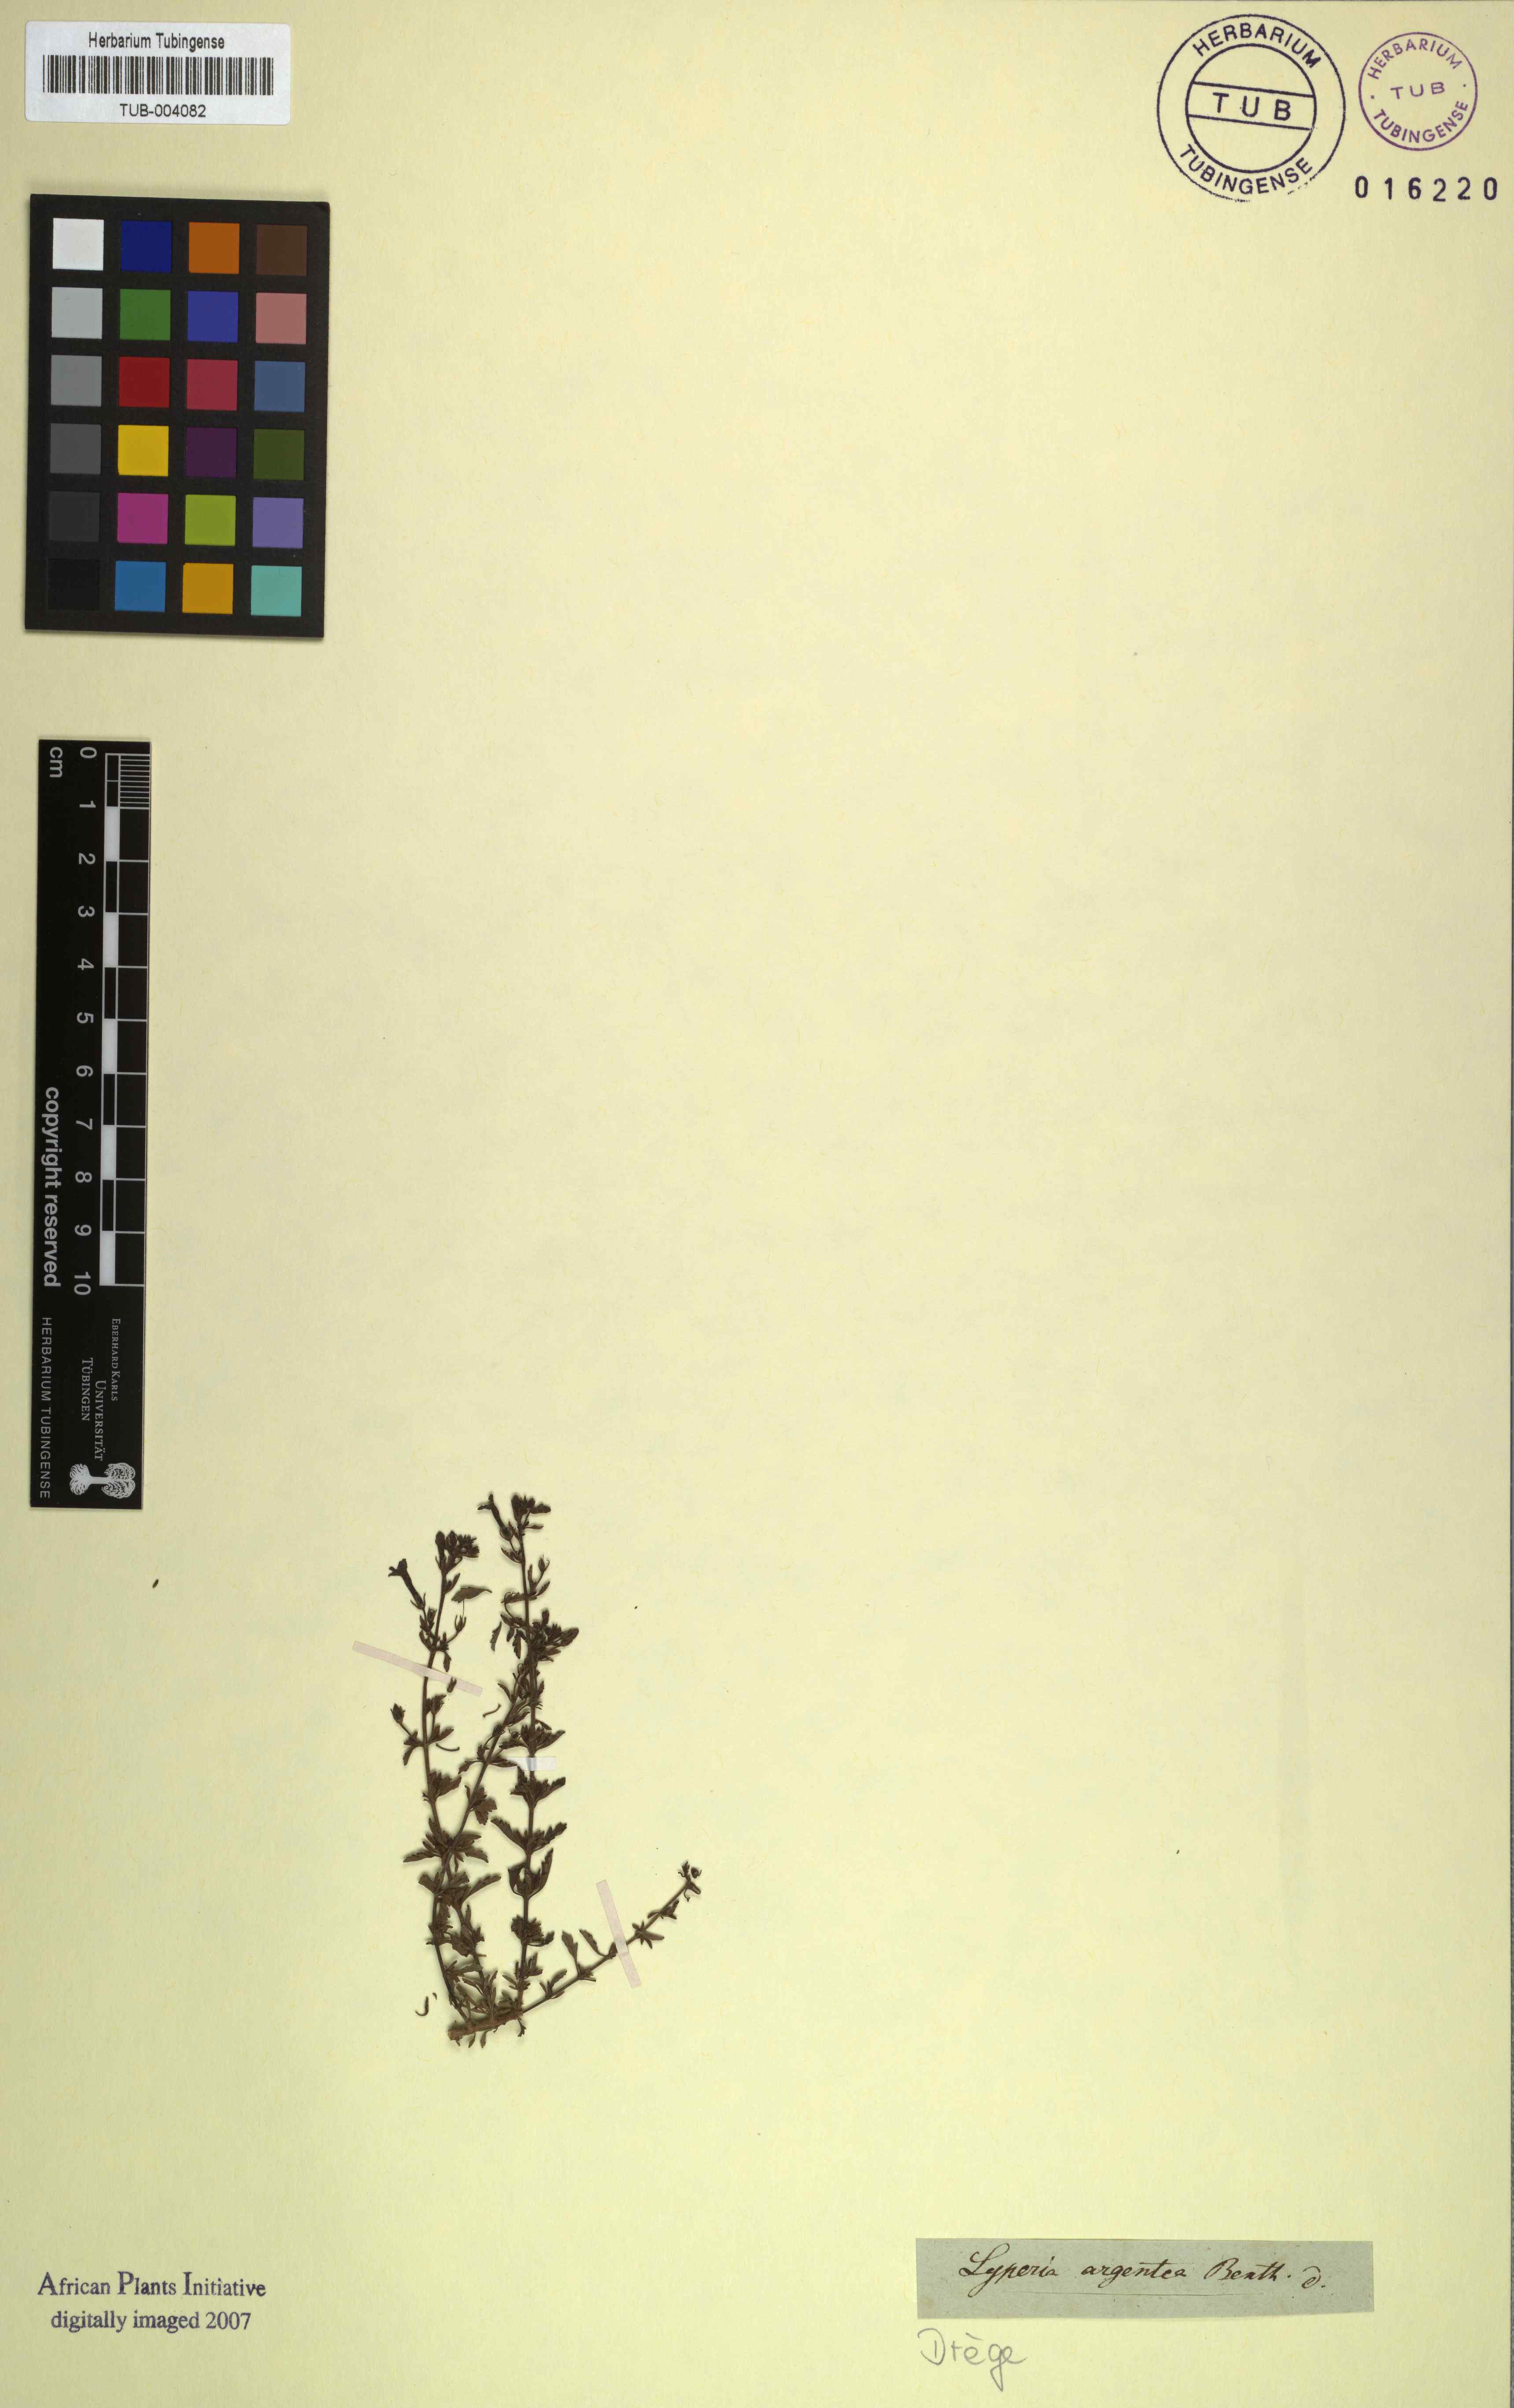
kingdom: Plantae
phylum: Tracheophyta
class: Magnoliopsida
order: Lamiales
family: Scrophulariaceae
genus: Jamesbrittenia
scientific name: Jamesbrittenia argentea
